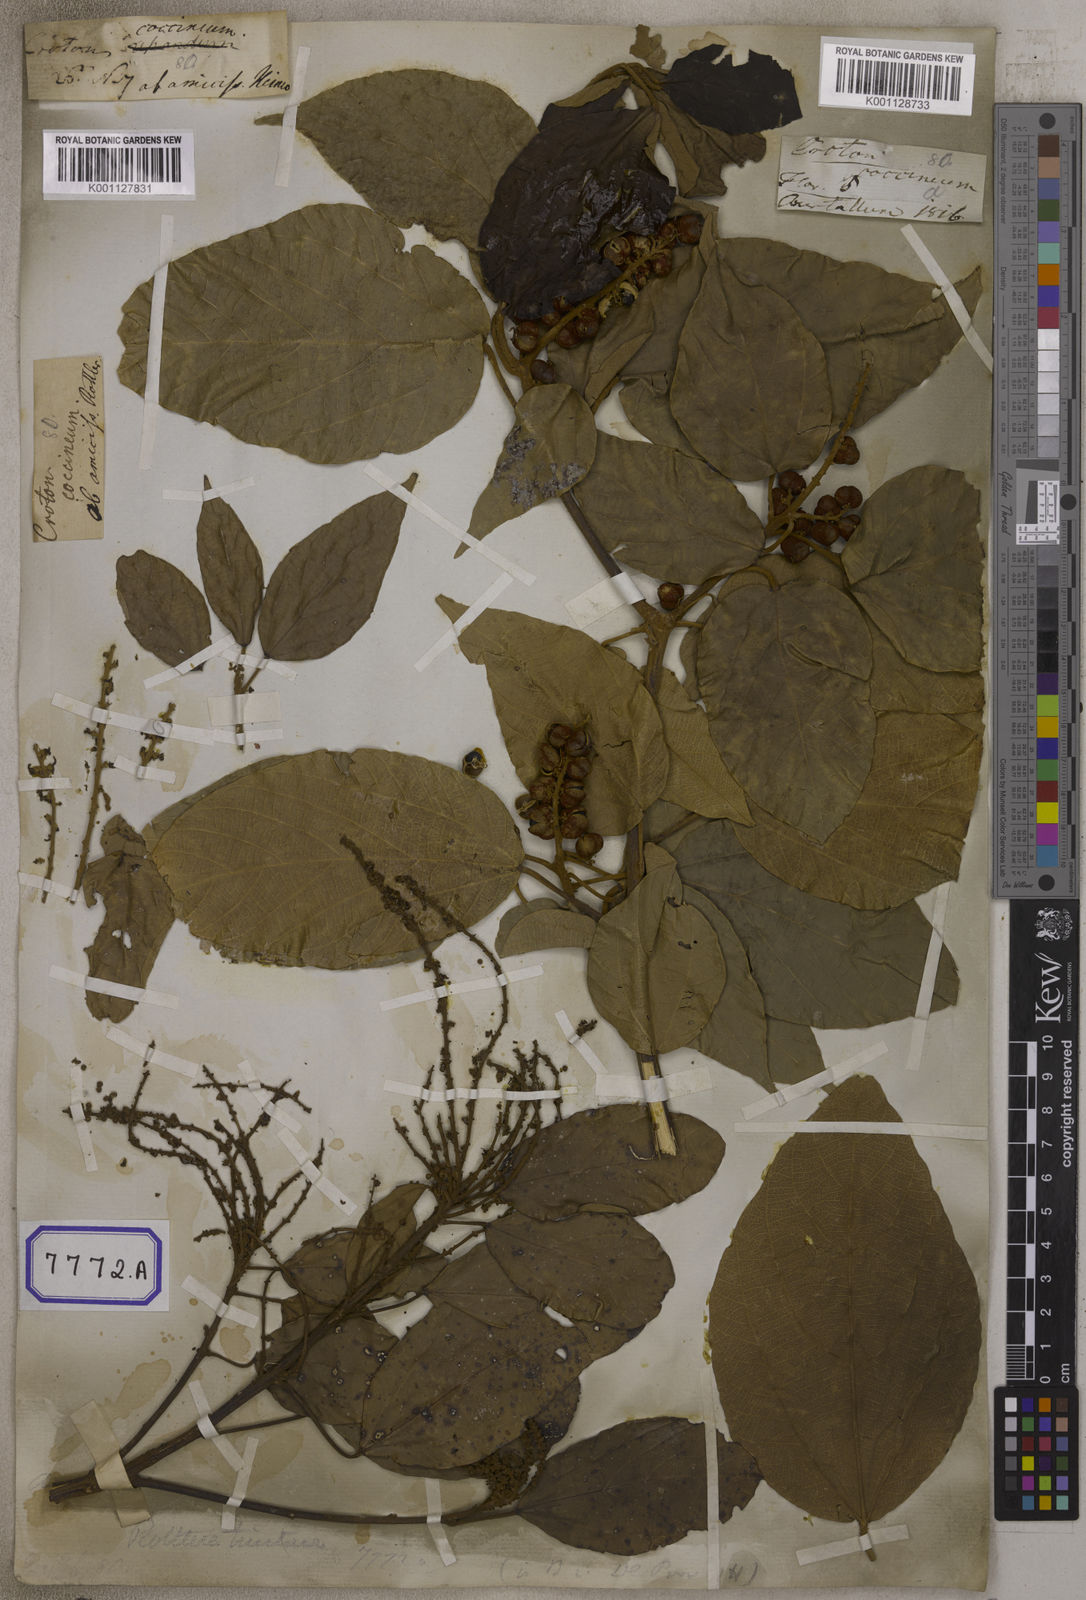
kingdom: Plantae
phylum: Tracheophyta
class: Magnoliopsida
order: Malpighiales
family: Euphorbiaceae
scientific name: Euphorbiaceae
